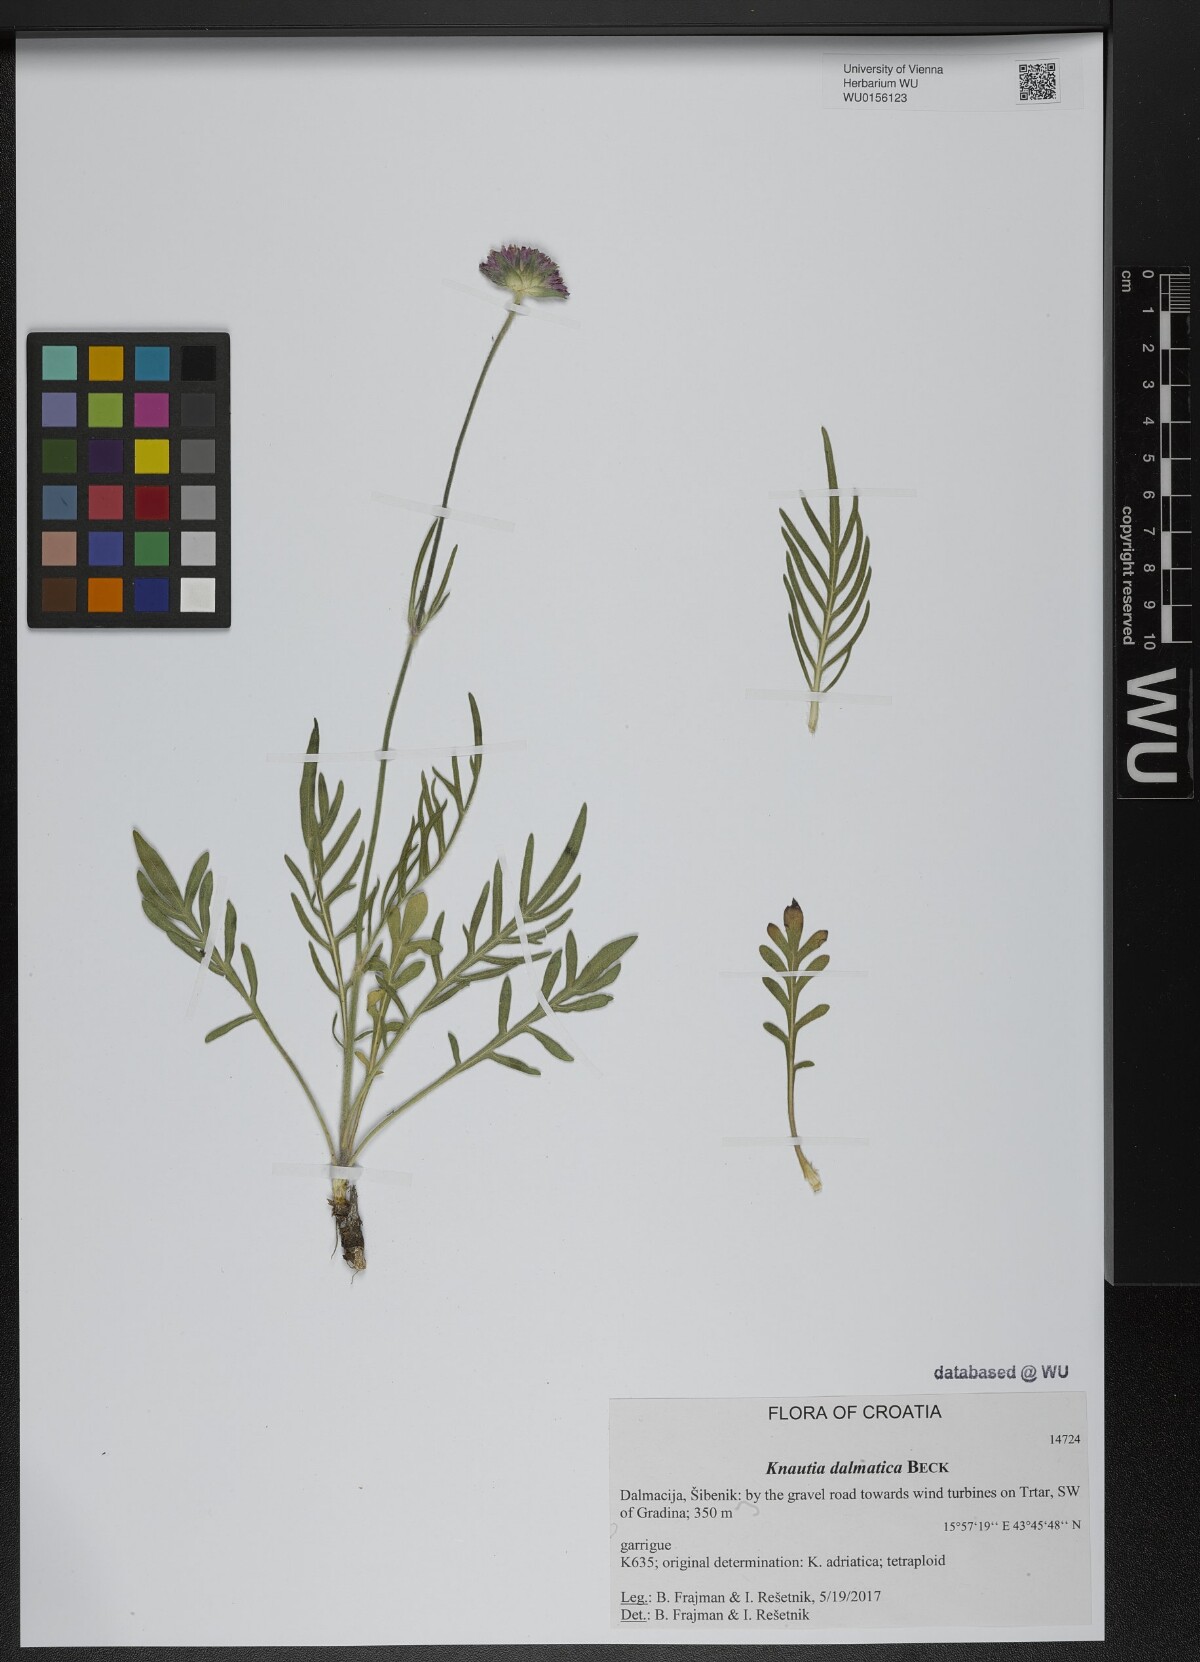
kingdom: Plantae
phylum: Tracheophyta
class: Magnoliopsida
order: Dipsacales
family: Caprifoliaceae
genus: Knautia
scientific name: Knautia dalmatica
